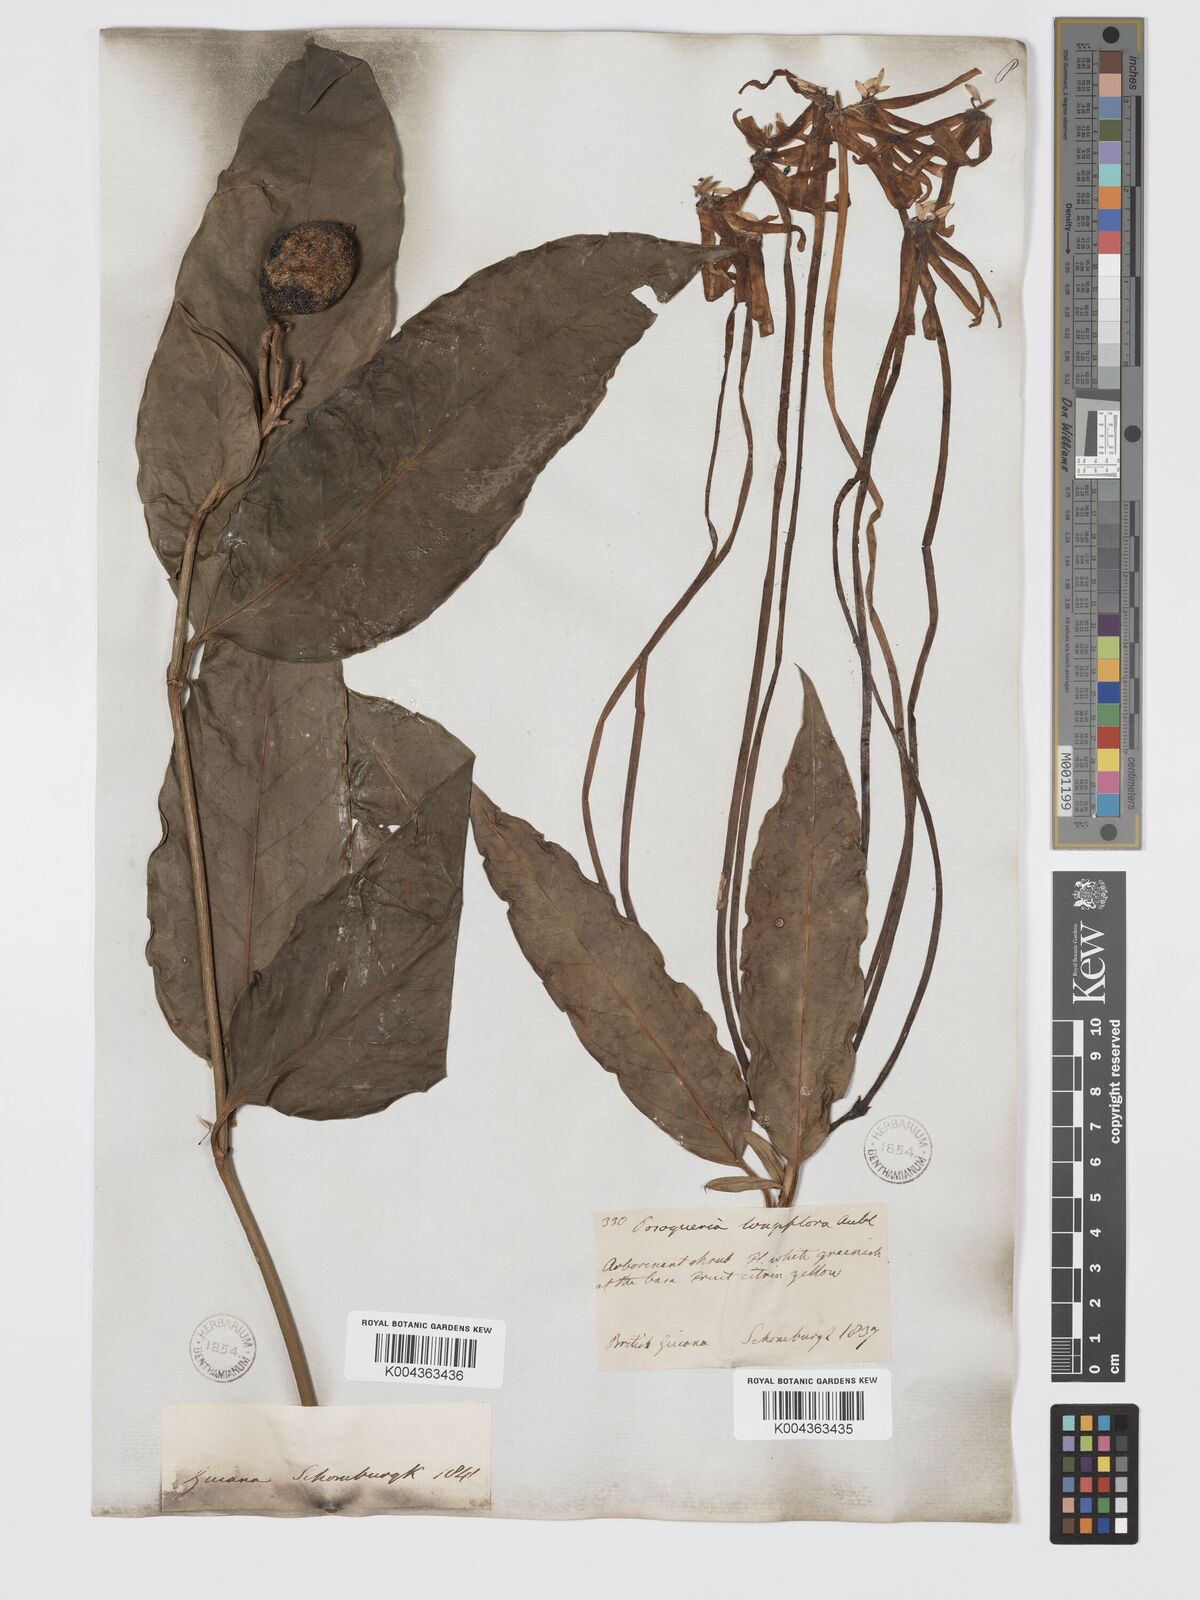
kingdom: Plantae
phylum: Tracheophyta
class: Magnoliopsida
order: Gentianales
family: Rubiaceae
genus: Posoqueria
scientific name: Posoqueria
